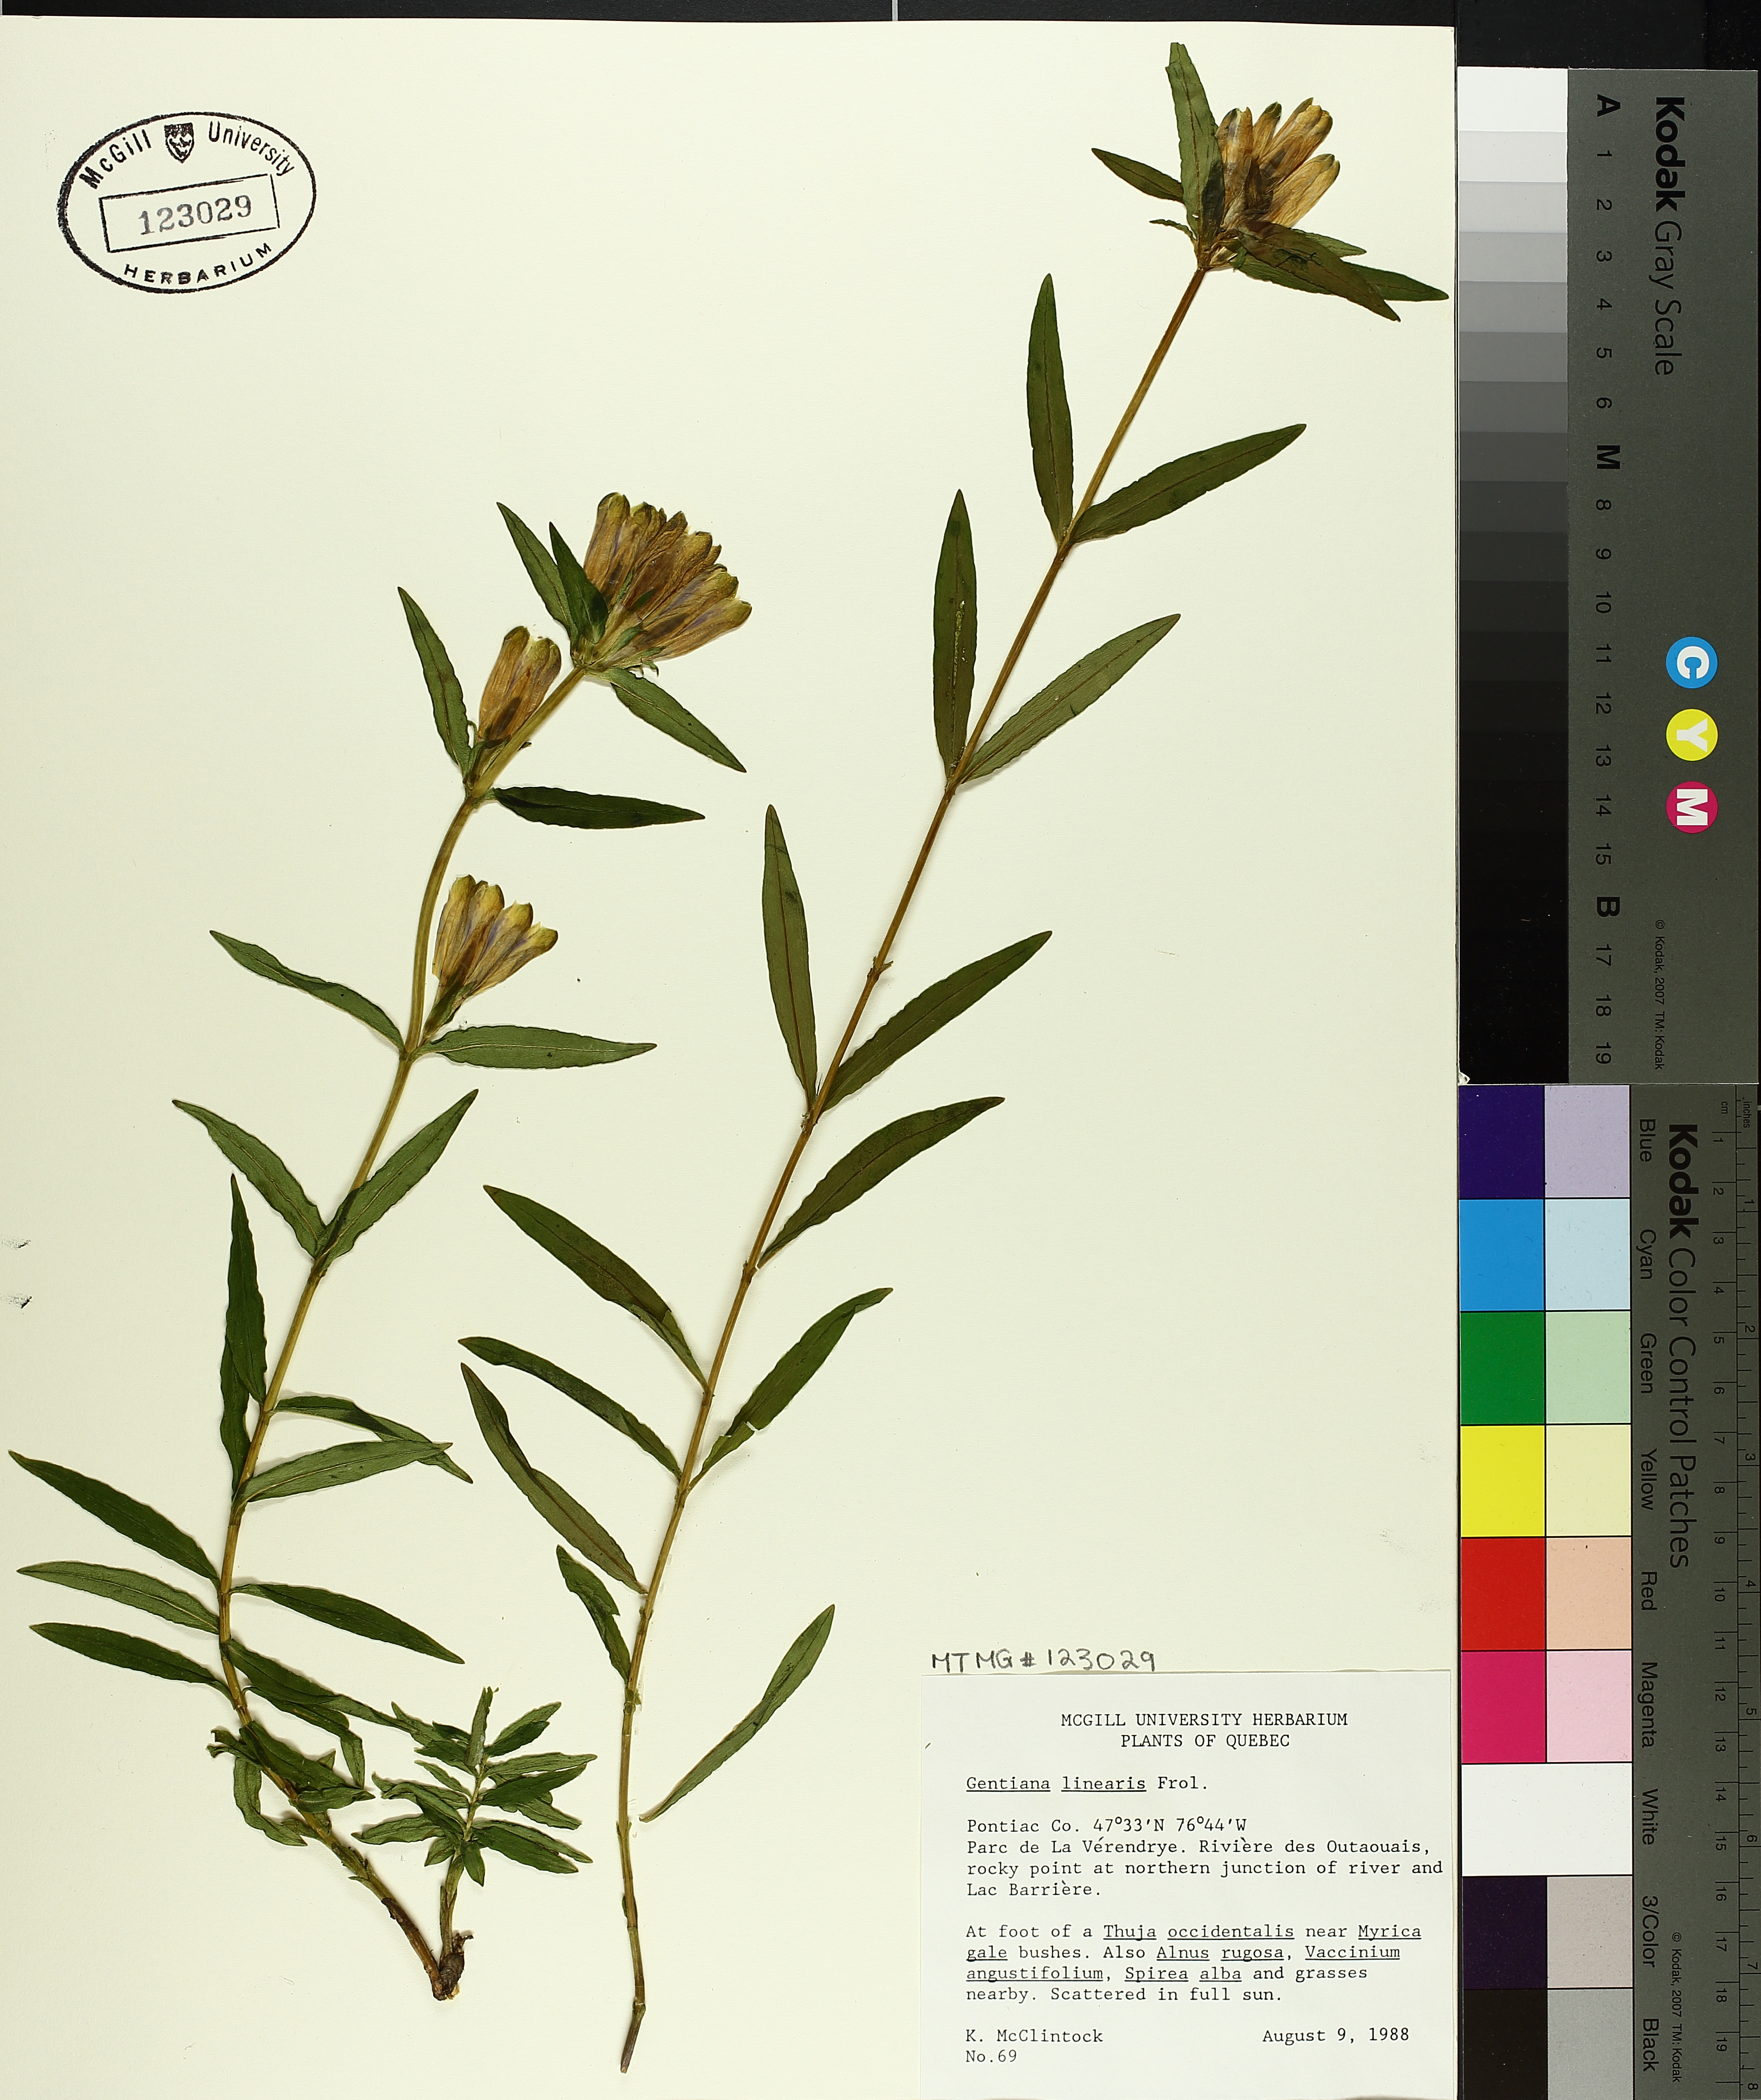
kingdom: Plantae
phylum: Tracheophyta
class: Magnoliopsida
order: Gentianales
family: Gentianaceae
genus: Gentiana
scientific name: Gentiana linearis
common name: Bastard gentian
